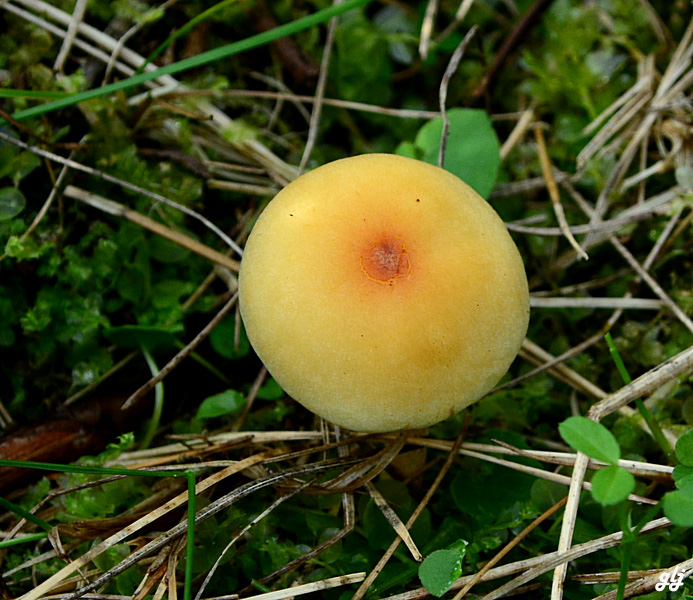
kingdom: Fungi
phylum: Basidiomycota
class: Agaricomycetes
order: Agaricales
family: Strophariaceae
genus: Hypholoma
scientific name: Hypholoma
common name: svovlhat
